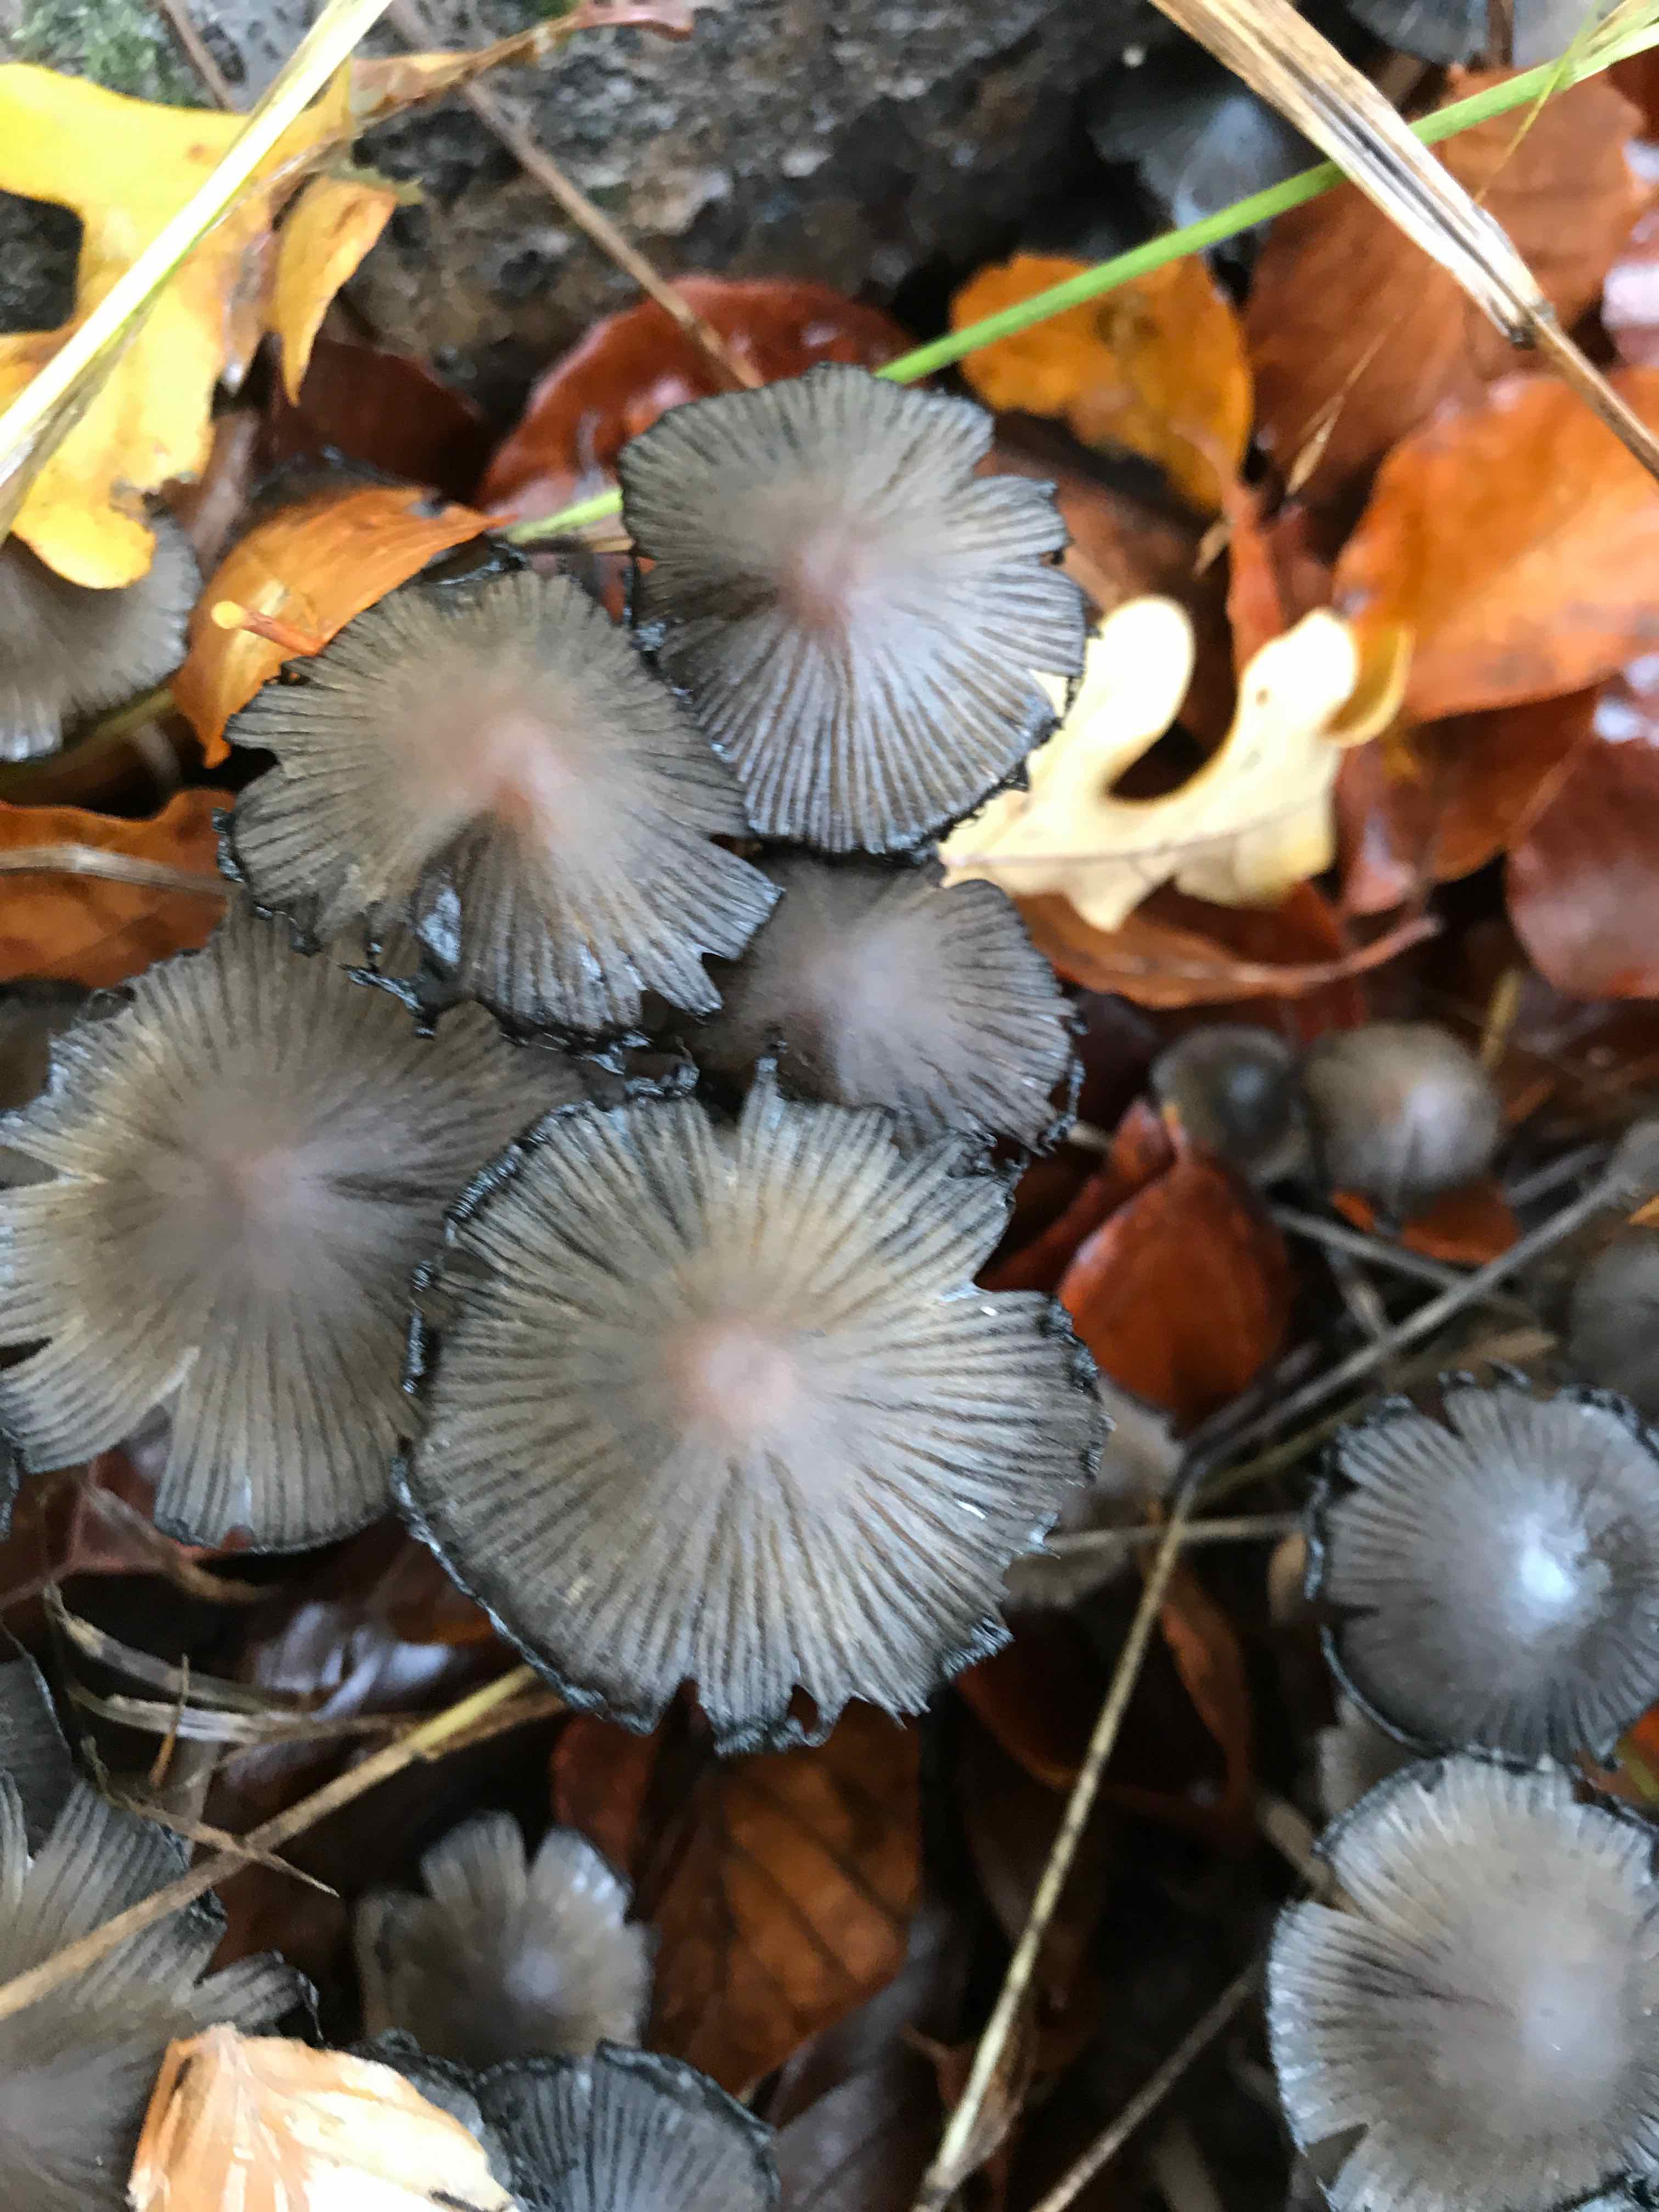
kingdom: Fungi
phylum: Basidiomycota
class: Agaricomycetes
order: Agaricales
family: Psathyrellaceae
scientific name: Psathyrellaceae
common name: mørkhatfamilien
